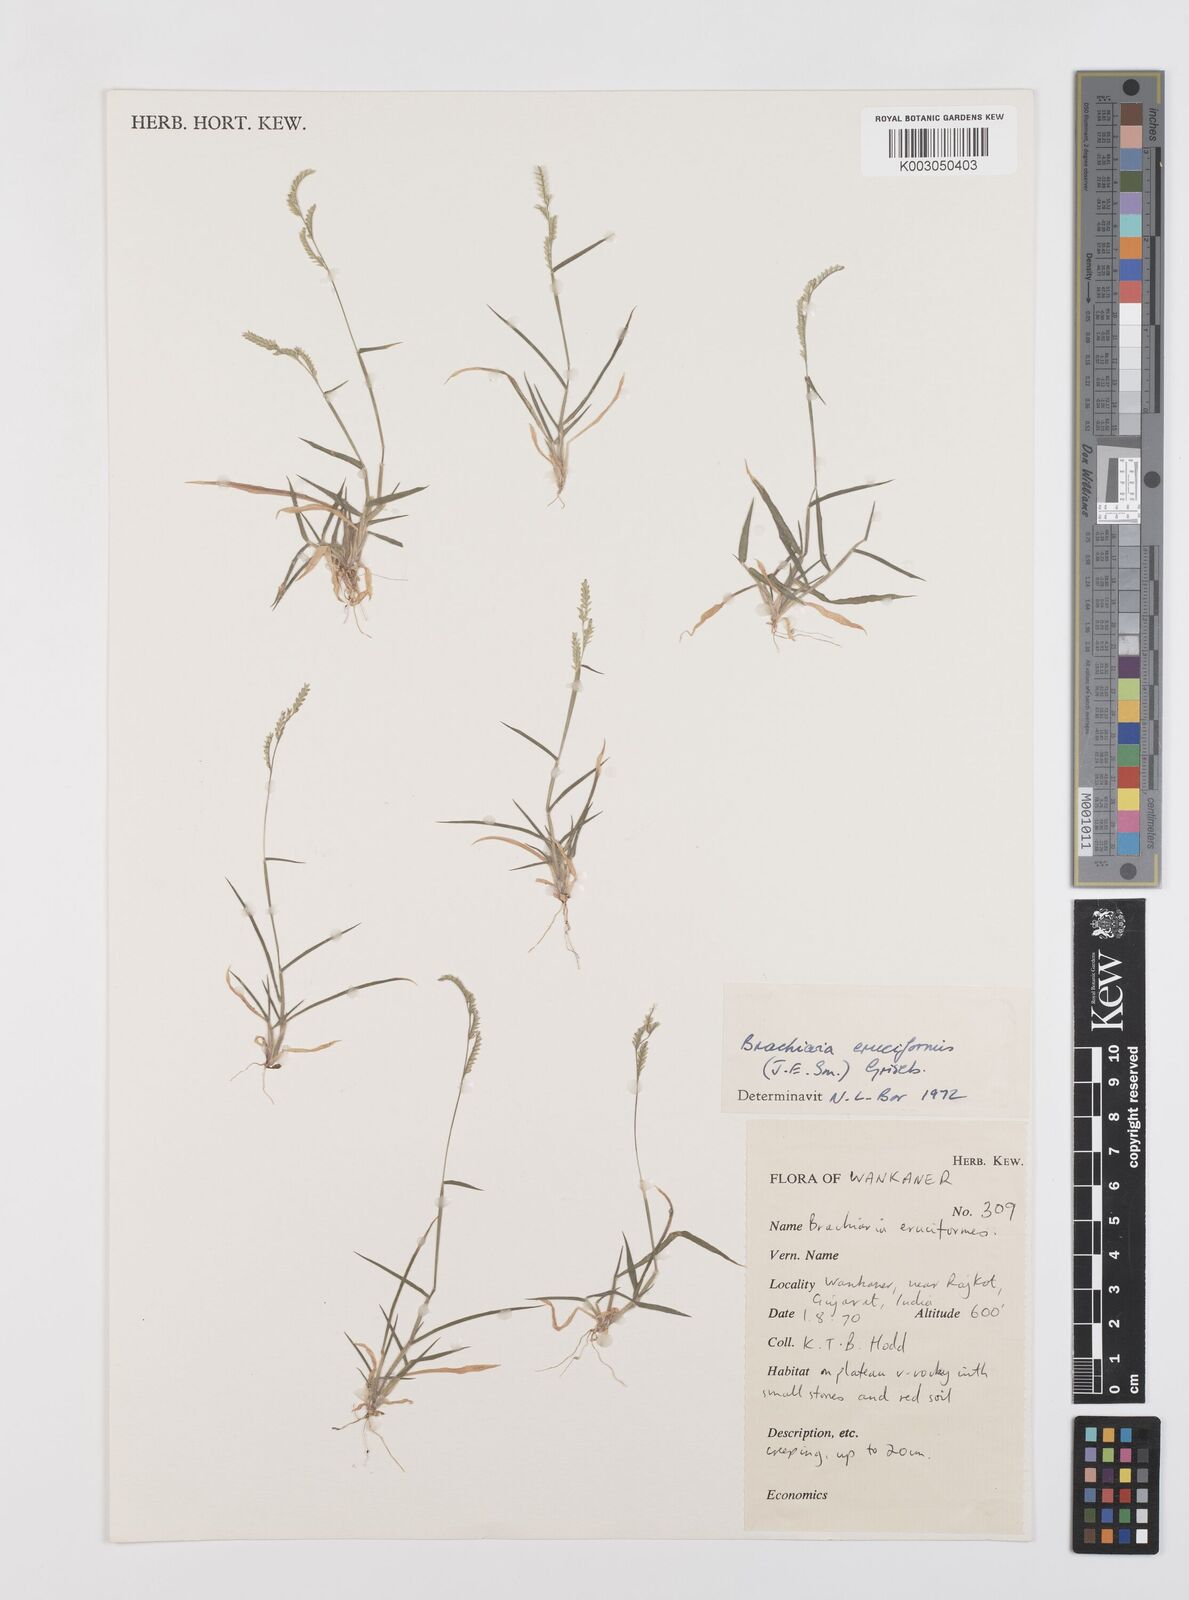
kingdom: Plantae
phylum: Tracheophyta
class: Liliopsida
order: Poales
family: Poaceae
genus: Moorochloa
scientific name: Moorochloa eruciformis
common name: Sweet signalgrass
